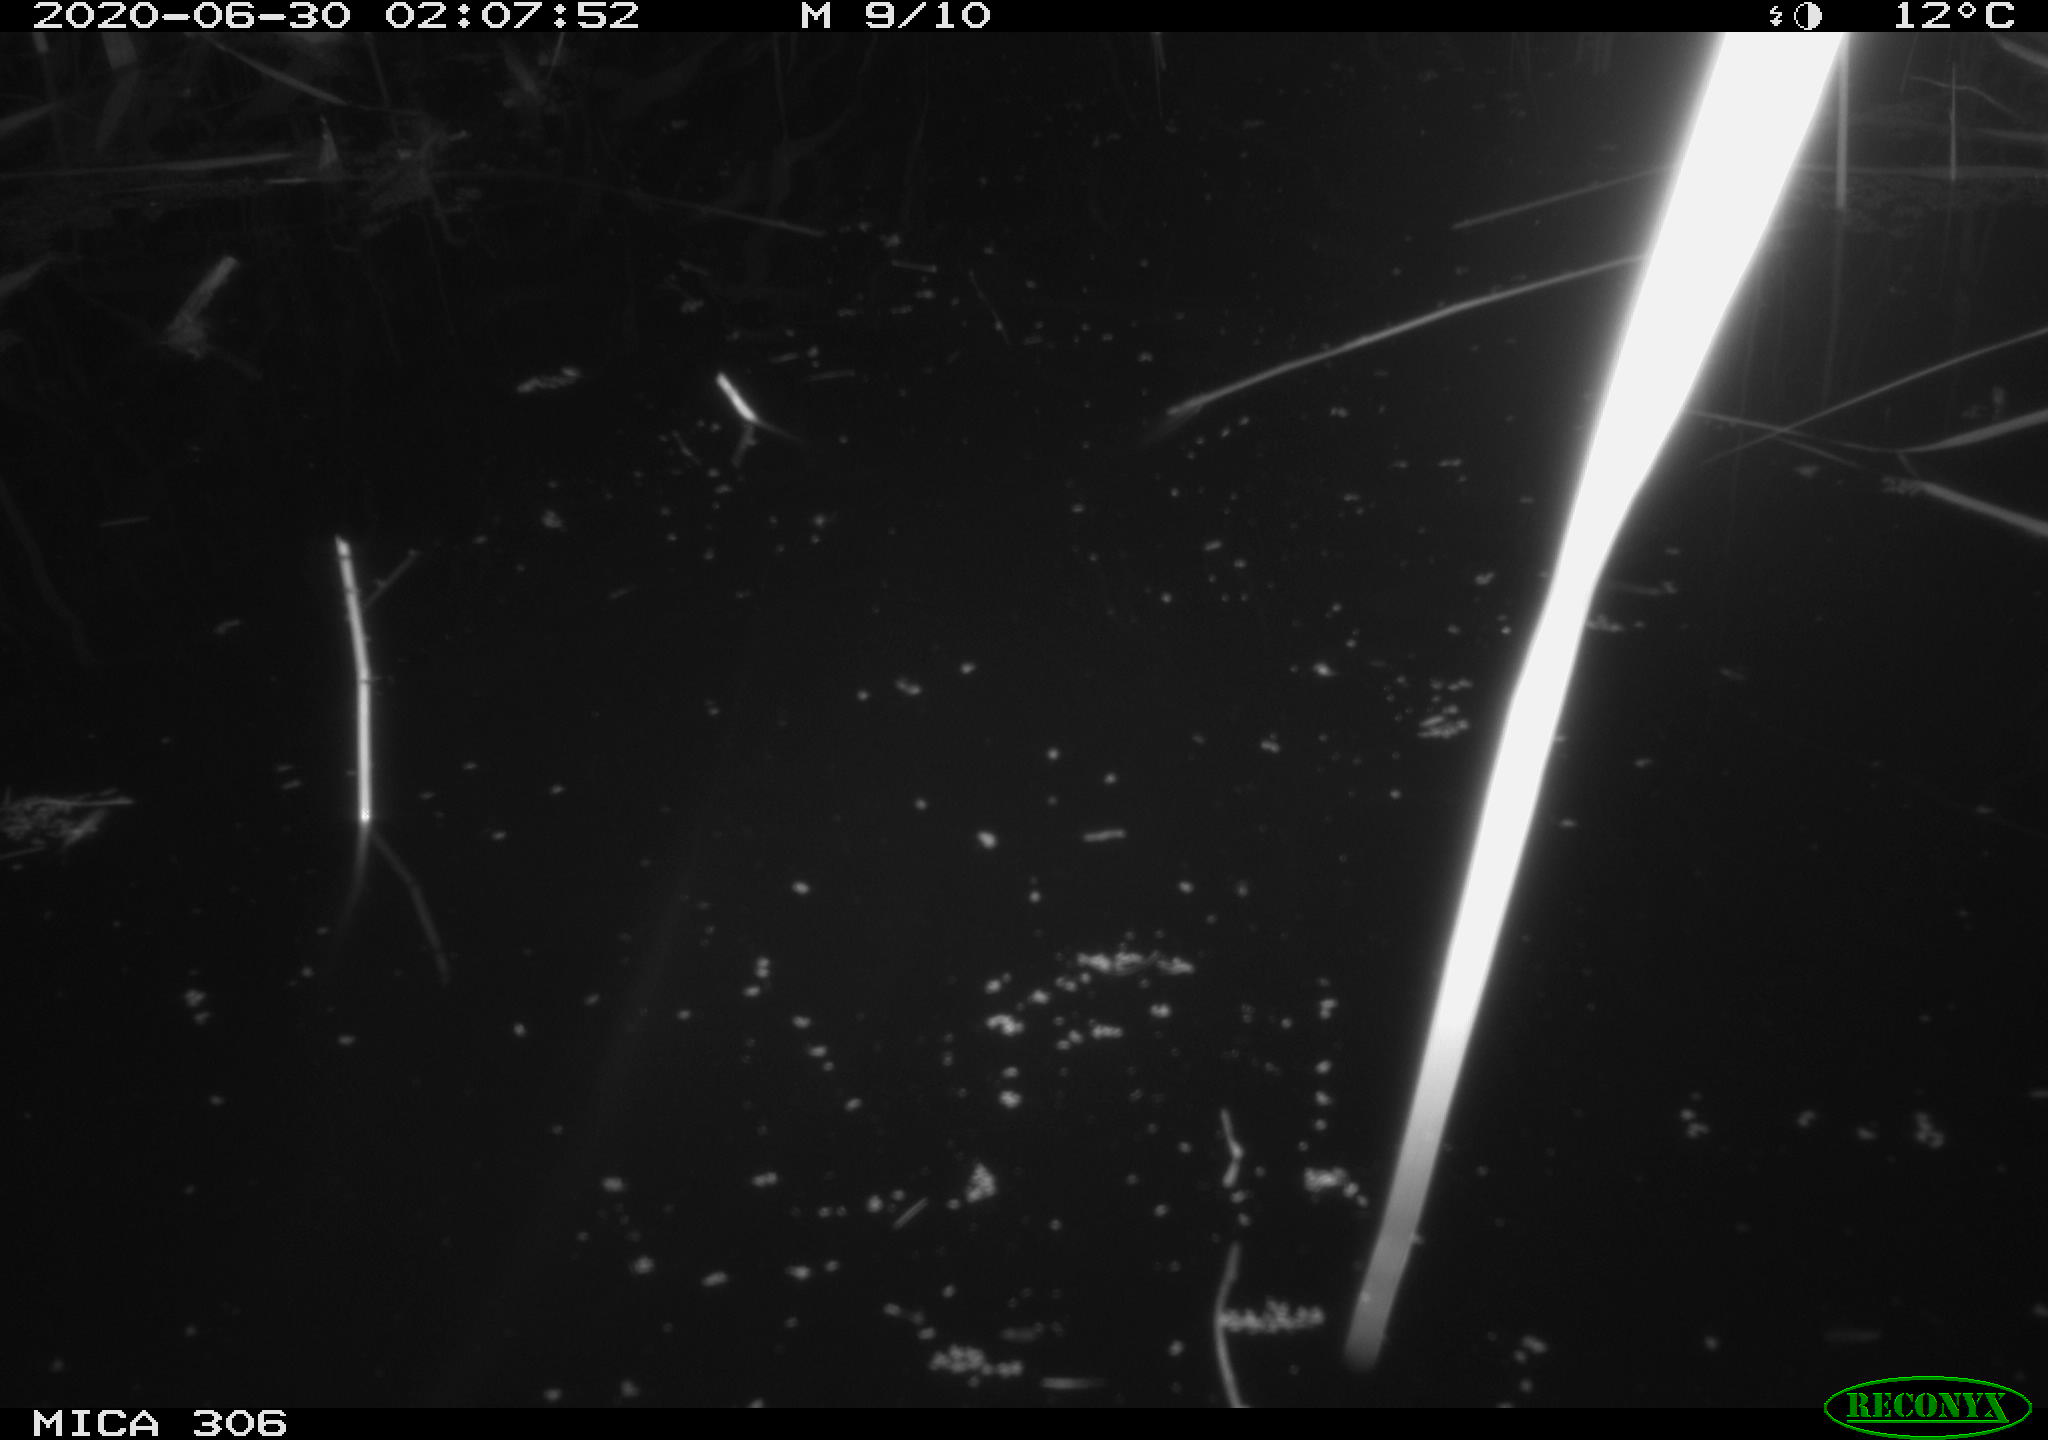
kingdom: Animalia
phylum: Chordata
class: Mammalia
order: Rodentia
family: Muridae
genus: Rattus
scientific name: Rattus norvegicus
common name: Brown rat
